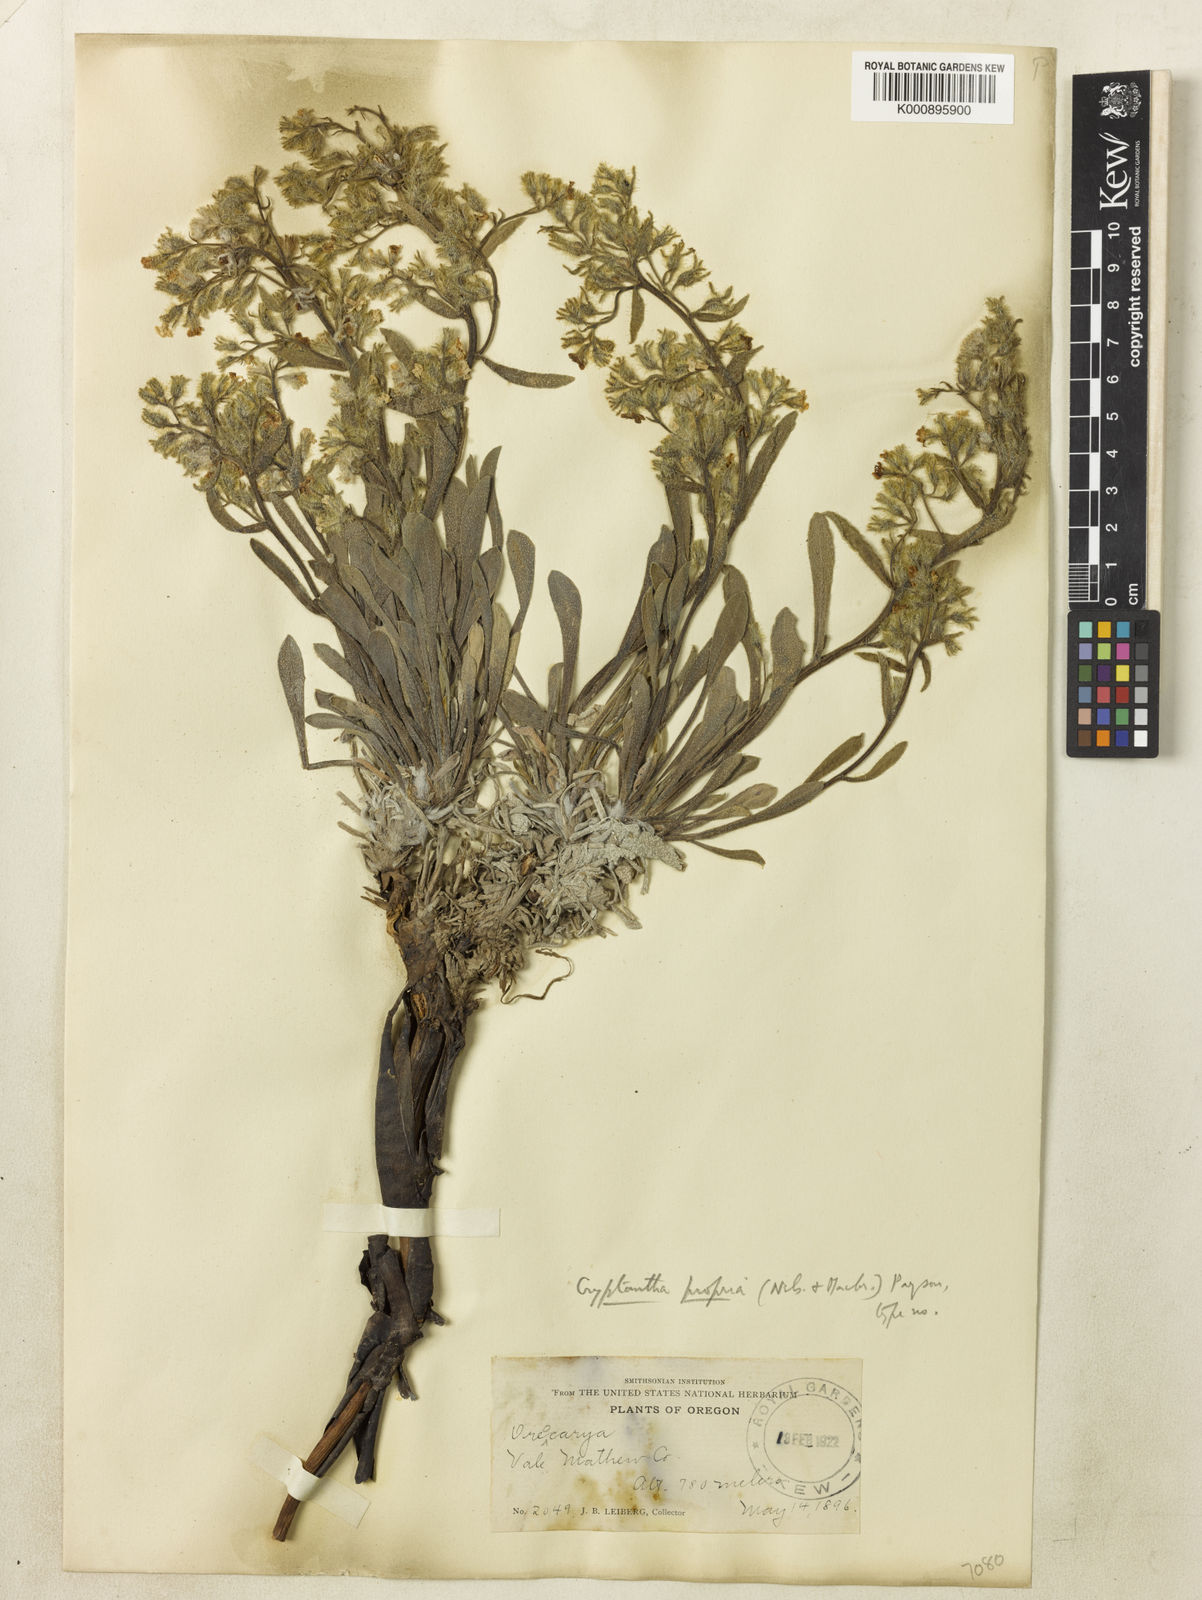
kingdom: Plantae
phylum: Tracheophyta
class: Magnoliopsida
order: Boraginales
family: Boraginaceae
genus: Oreocarya
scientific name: Oreocarya propria
